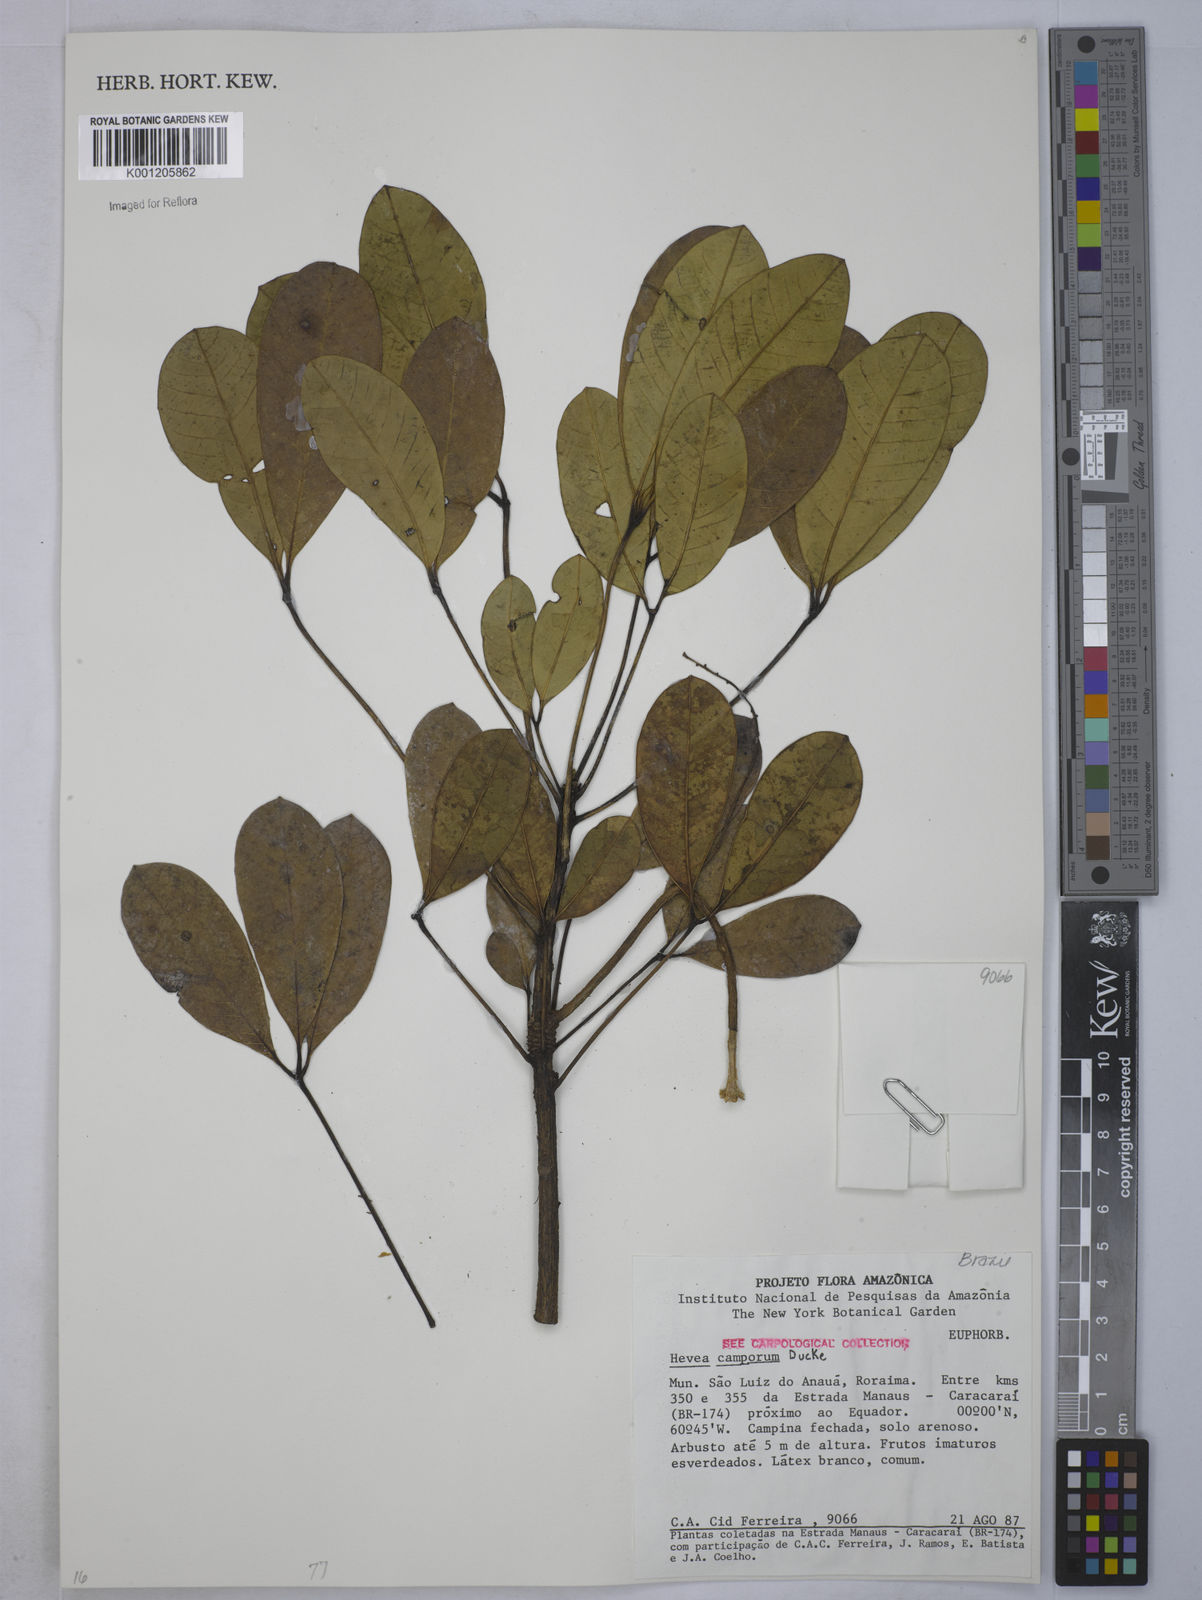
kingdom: Plantae
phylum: Tracheophyta
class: Magnoliopsida
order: Malpighiales
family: Euphorbiaceae
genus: Hevea
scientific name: Hevea camporum
